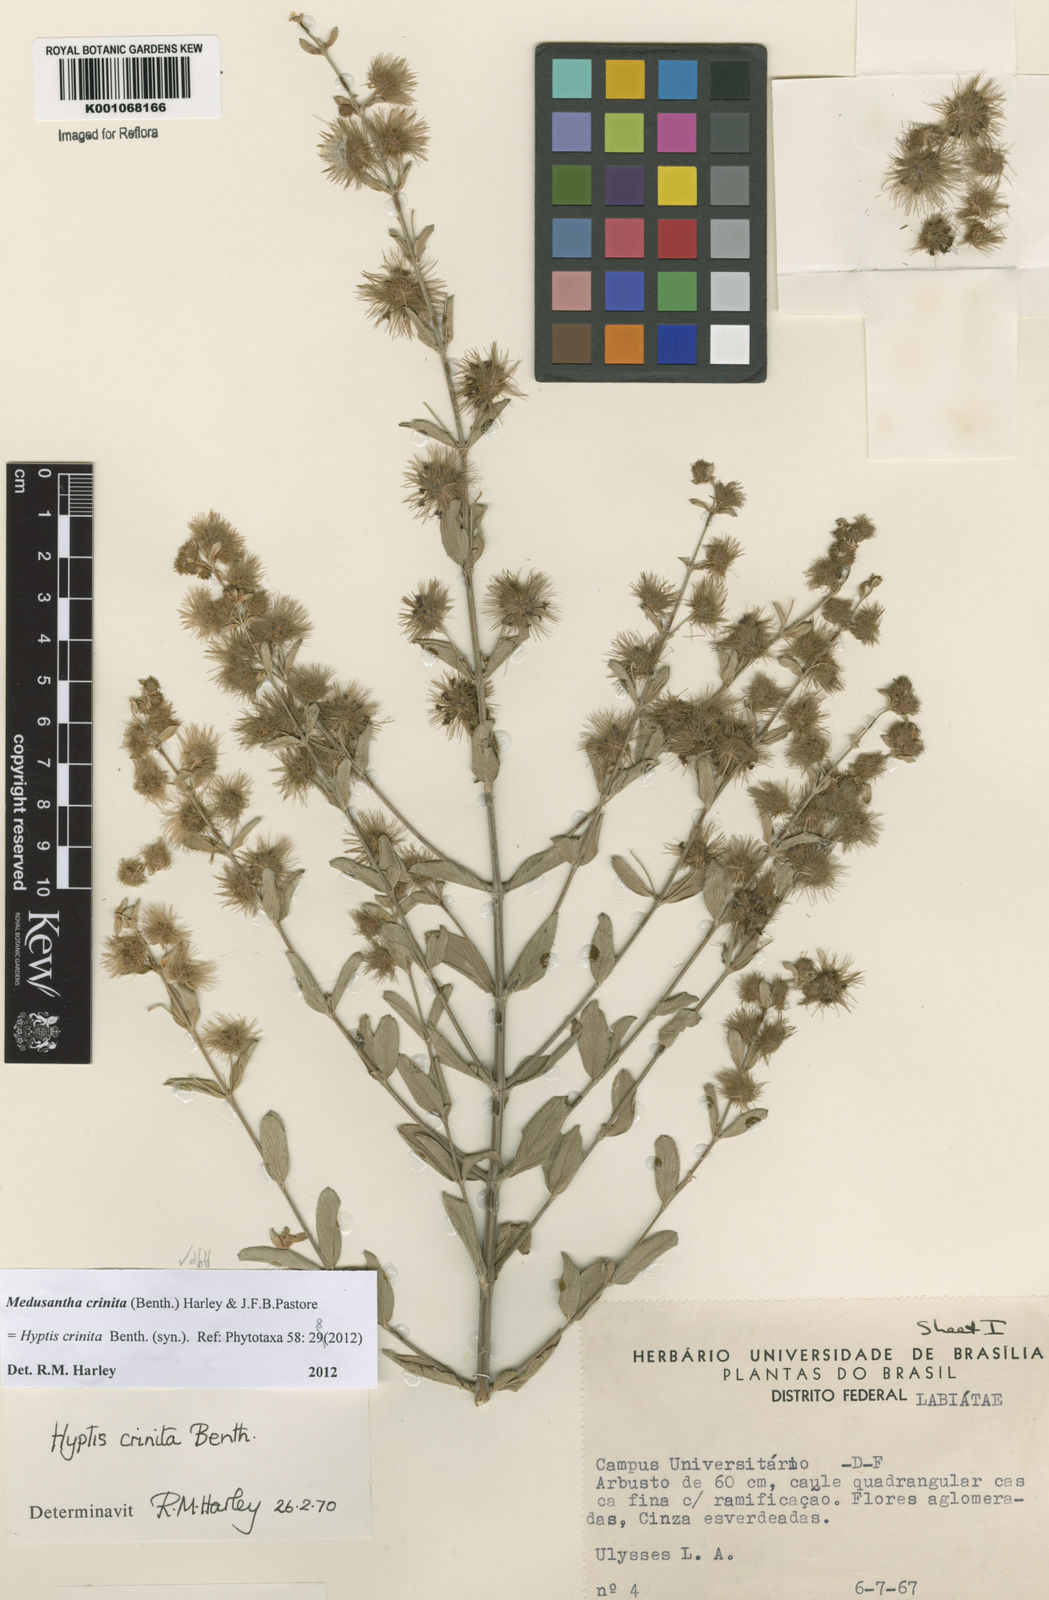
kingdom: Plantae
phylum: Tracheophyta
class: Magnoliopsida
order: Lamiales
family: Lamiaceae
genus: Medusantha
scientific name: Medusantha crinita
